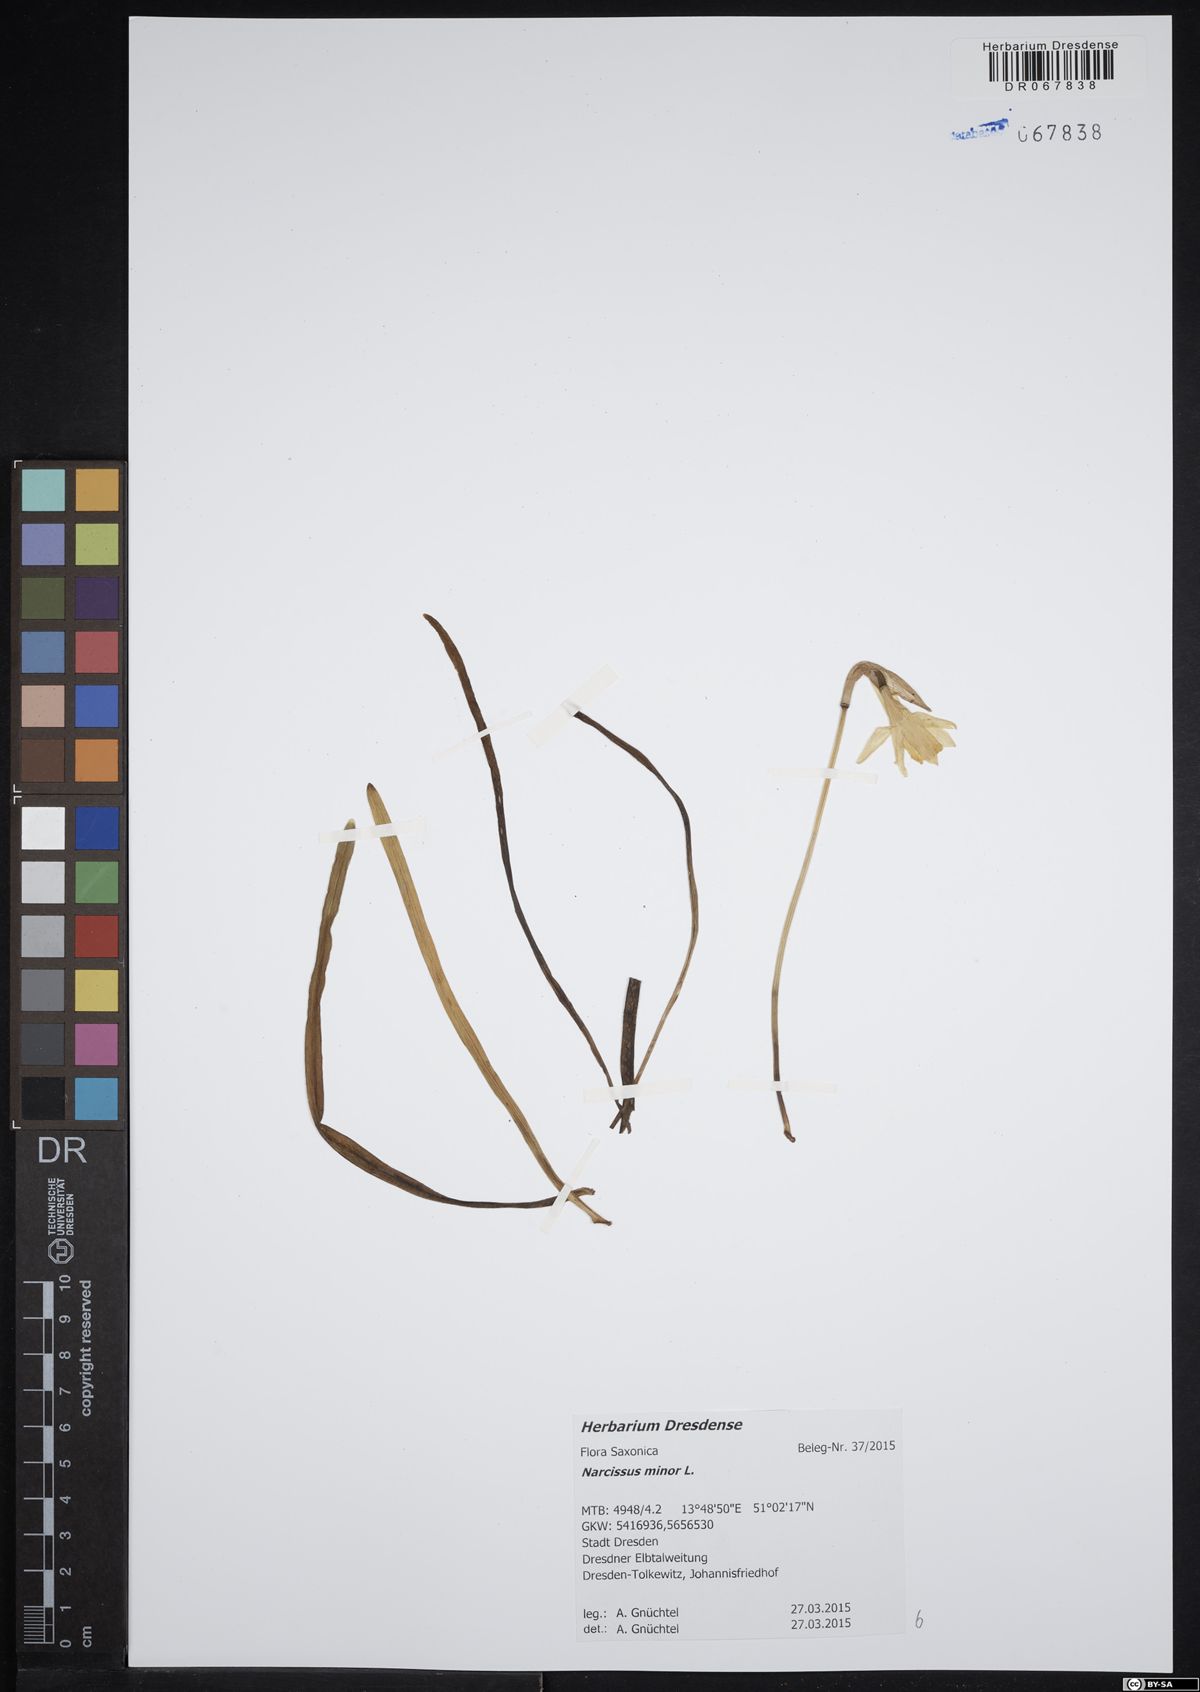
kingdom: Plantae
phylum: Tracheophyta
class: Liliopsida
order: Asparagales
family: Amaryllidaceae
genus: Narcissus
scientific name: Narcissus minor
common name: Lesser daffodil
